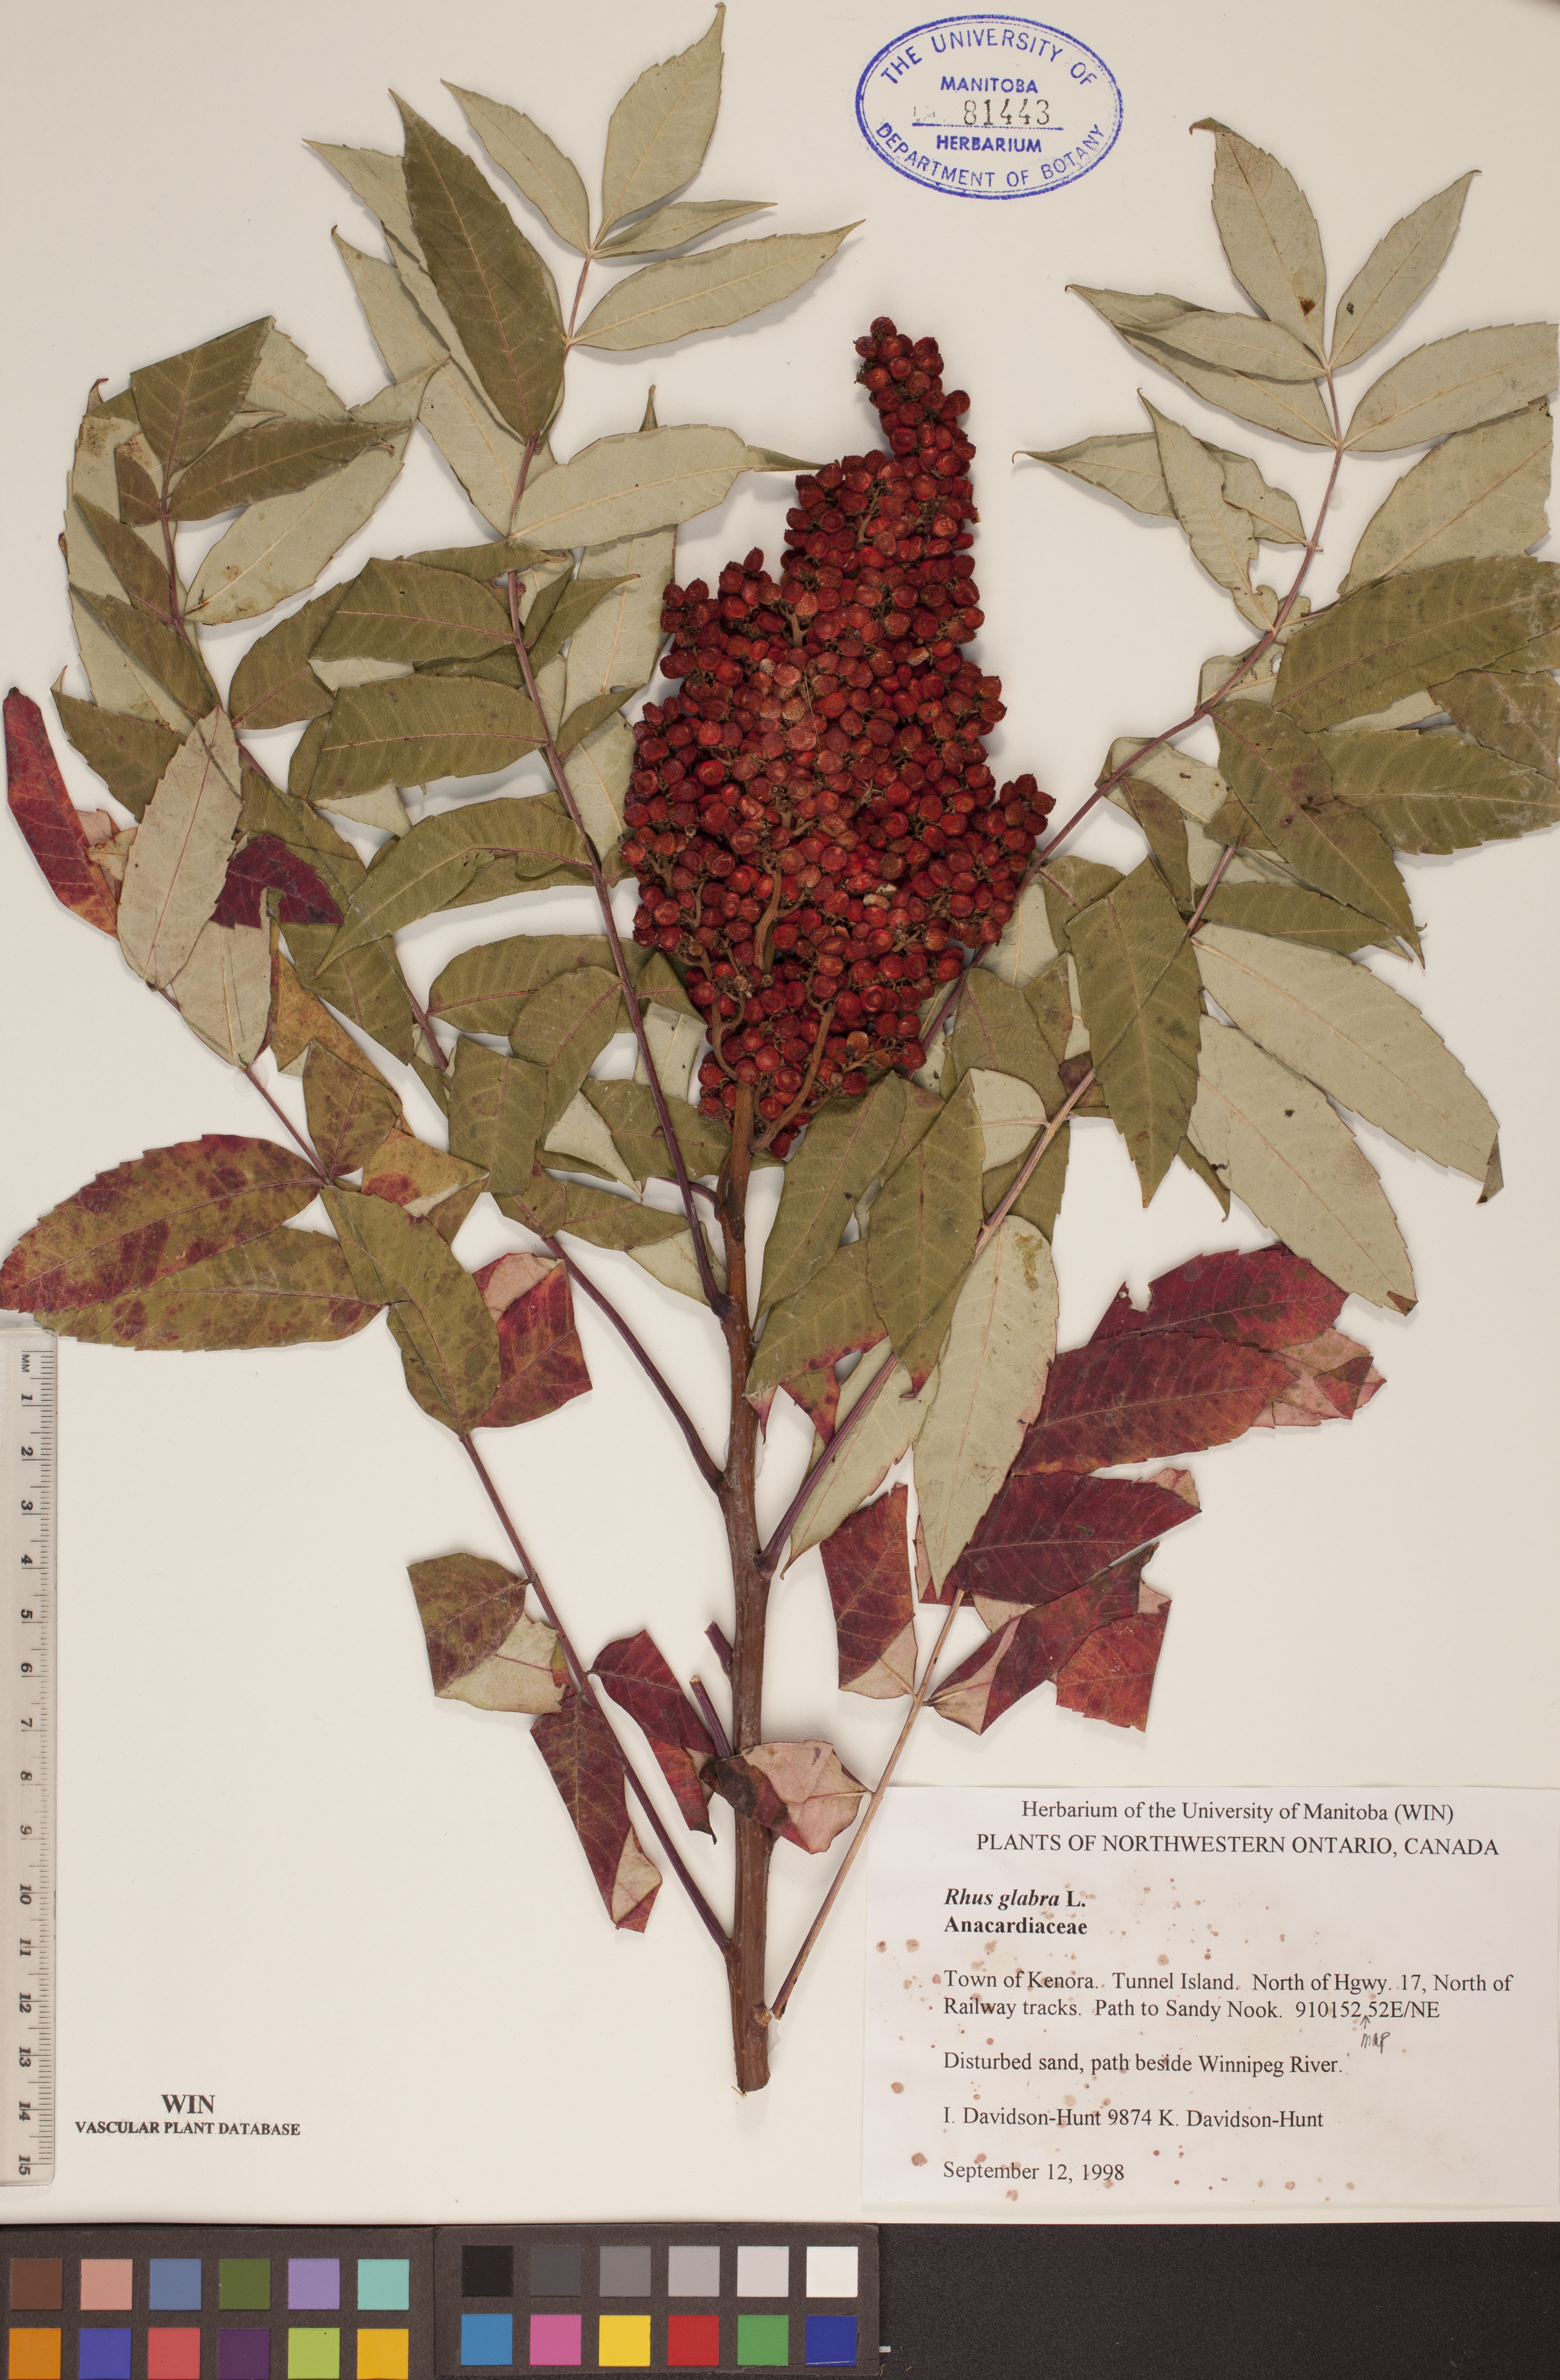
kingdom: Plantae
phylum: Tracheophyta
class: Magnoliopsida
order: Sapindales
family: Anacardiaceae
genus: Rhus
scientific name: Rhus glabra
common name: Scarlet sumac
